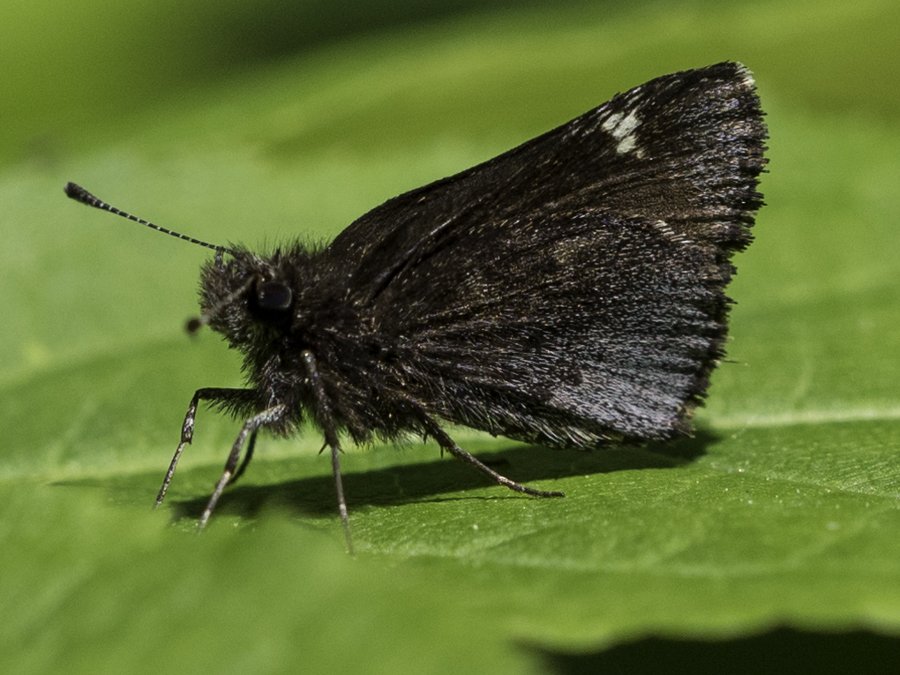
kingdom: Animalia
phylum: Arthropoda
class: Insecta
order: Lepidoptera
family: Hesperiidae
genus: Mastor
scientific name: Mastor vialis
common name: Common Roadside-Skipper
